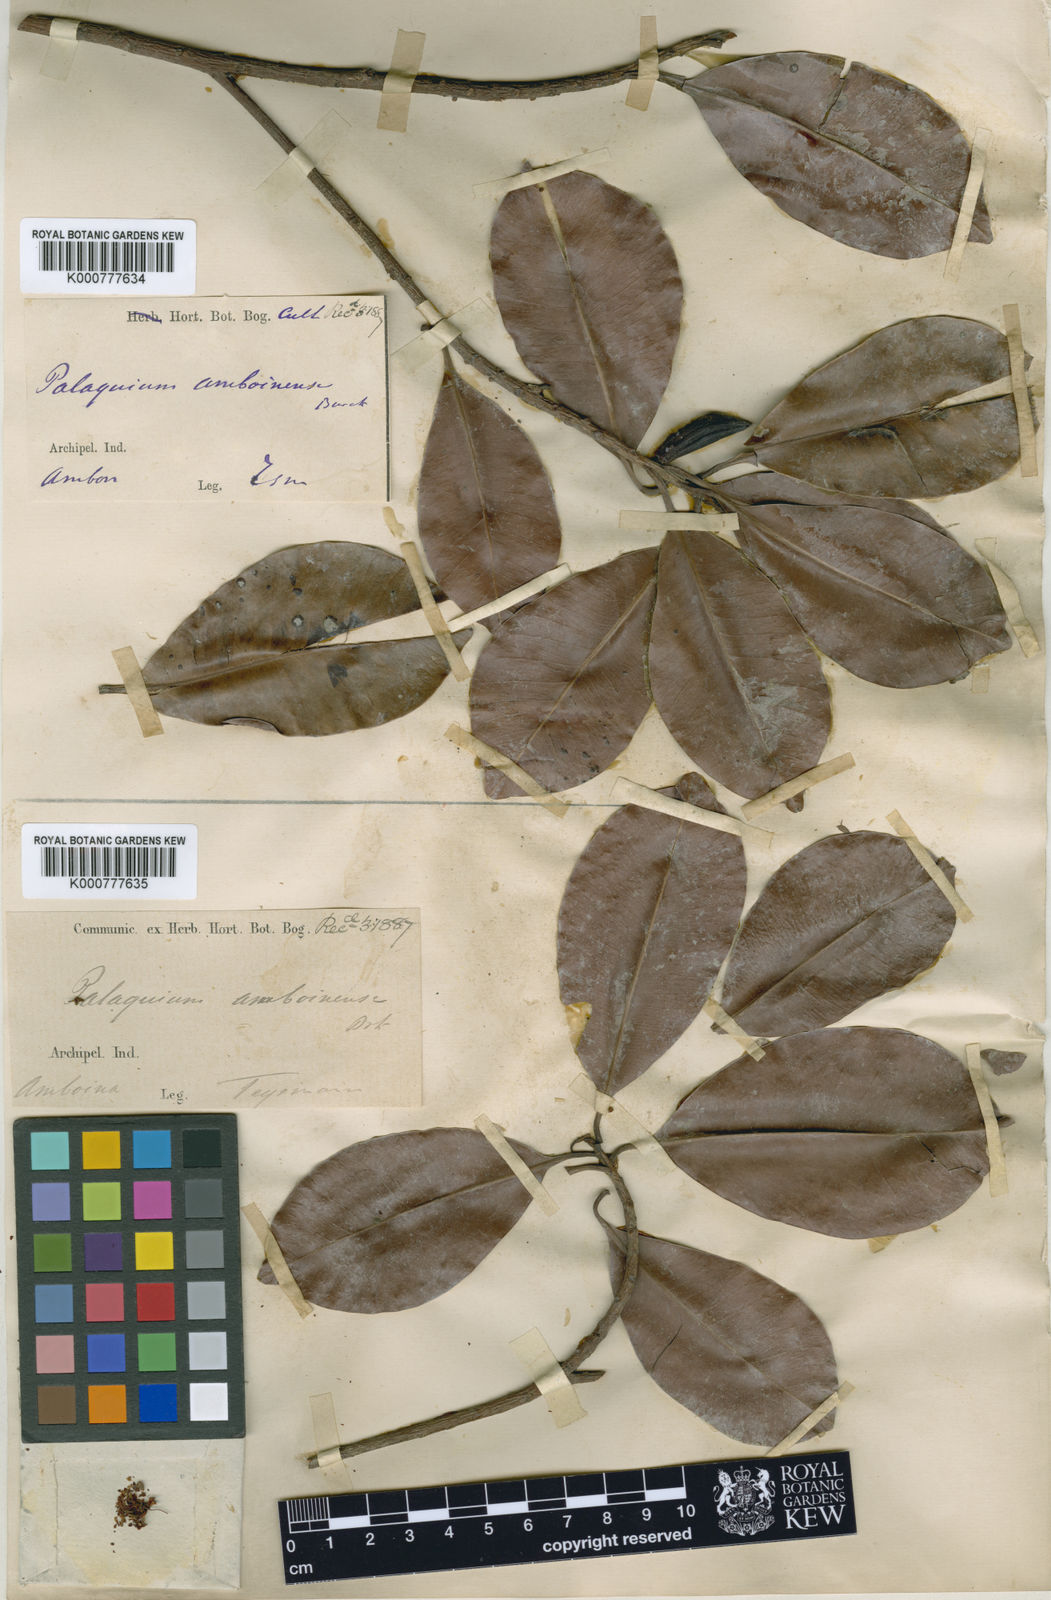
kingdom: Plantae
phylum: Tracheophyta
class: Magnoliopsida
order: Ericales
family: Sapotaceae
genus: Palaquium
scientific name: Palaquium amboinense
